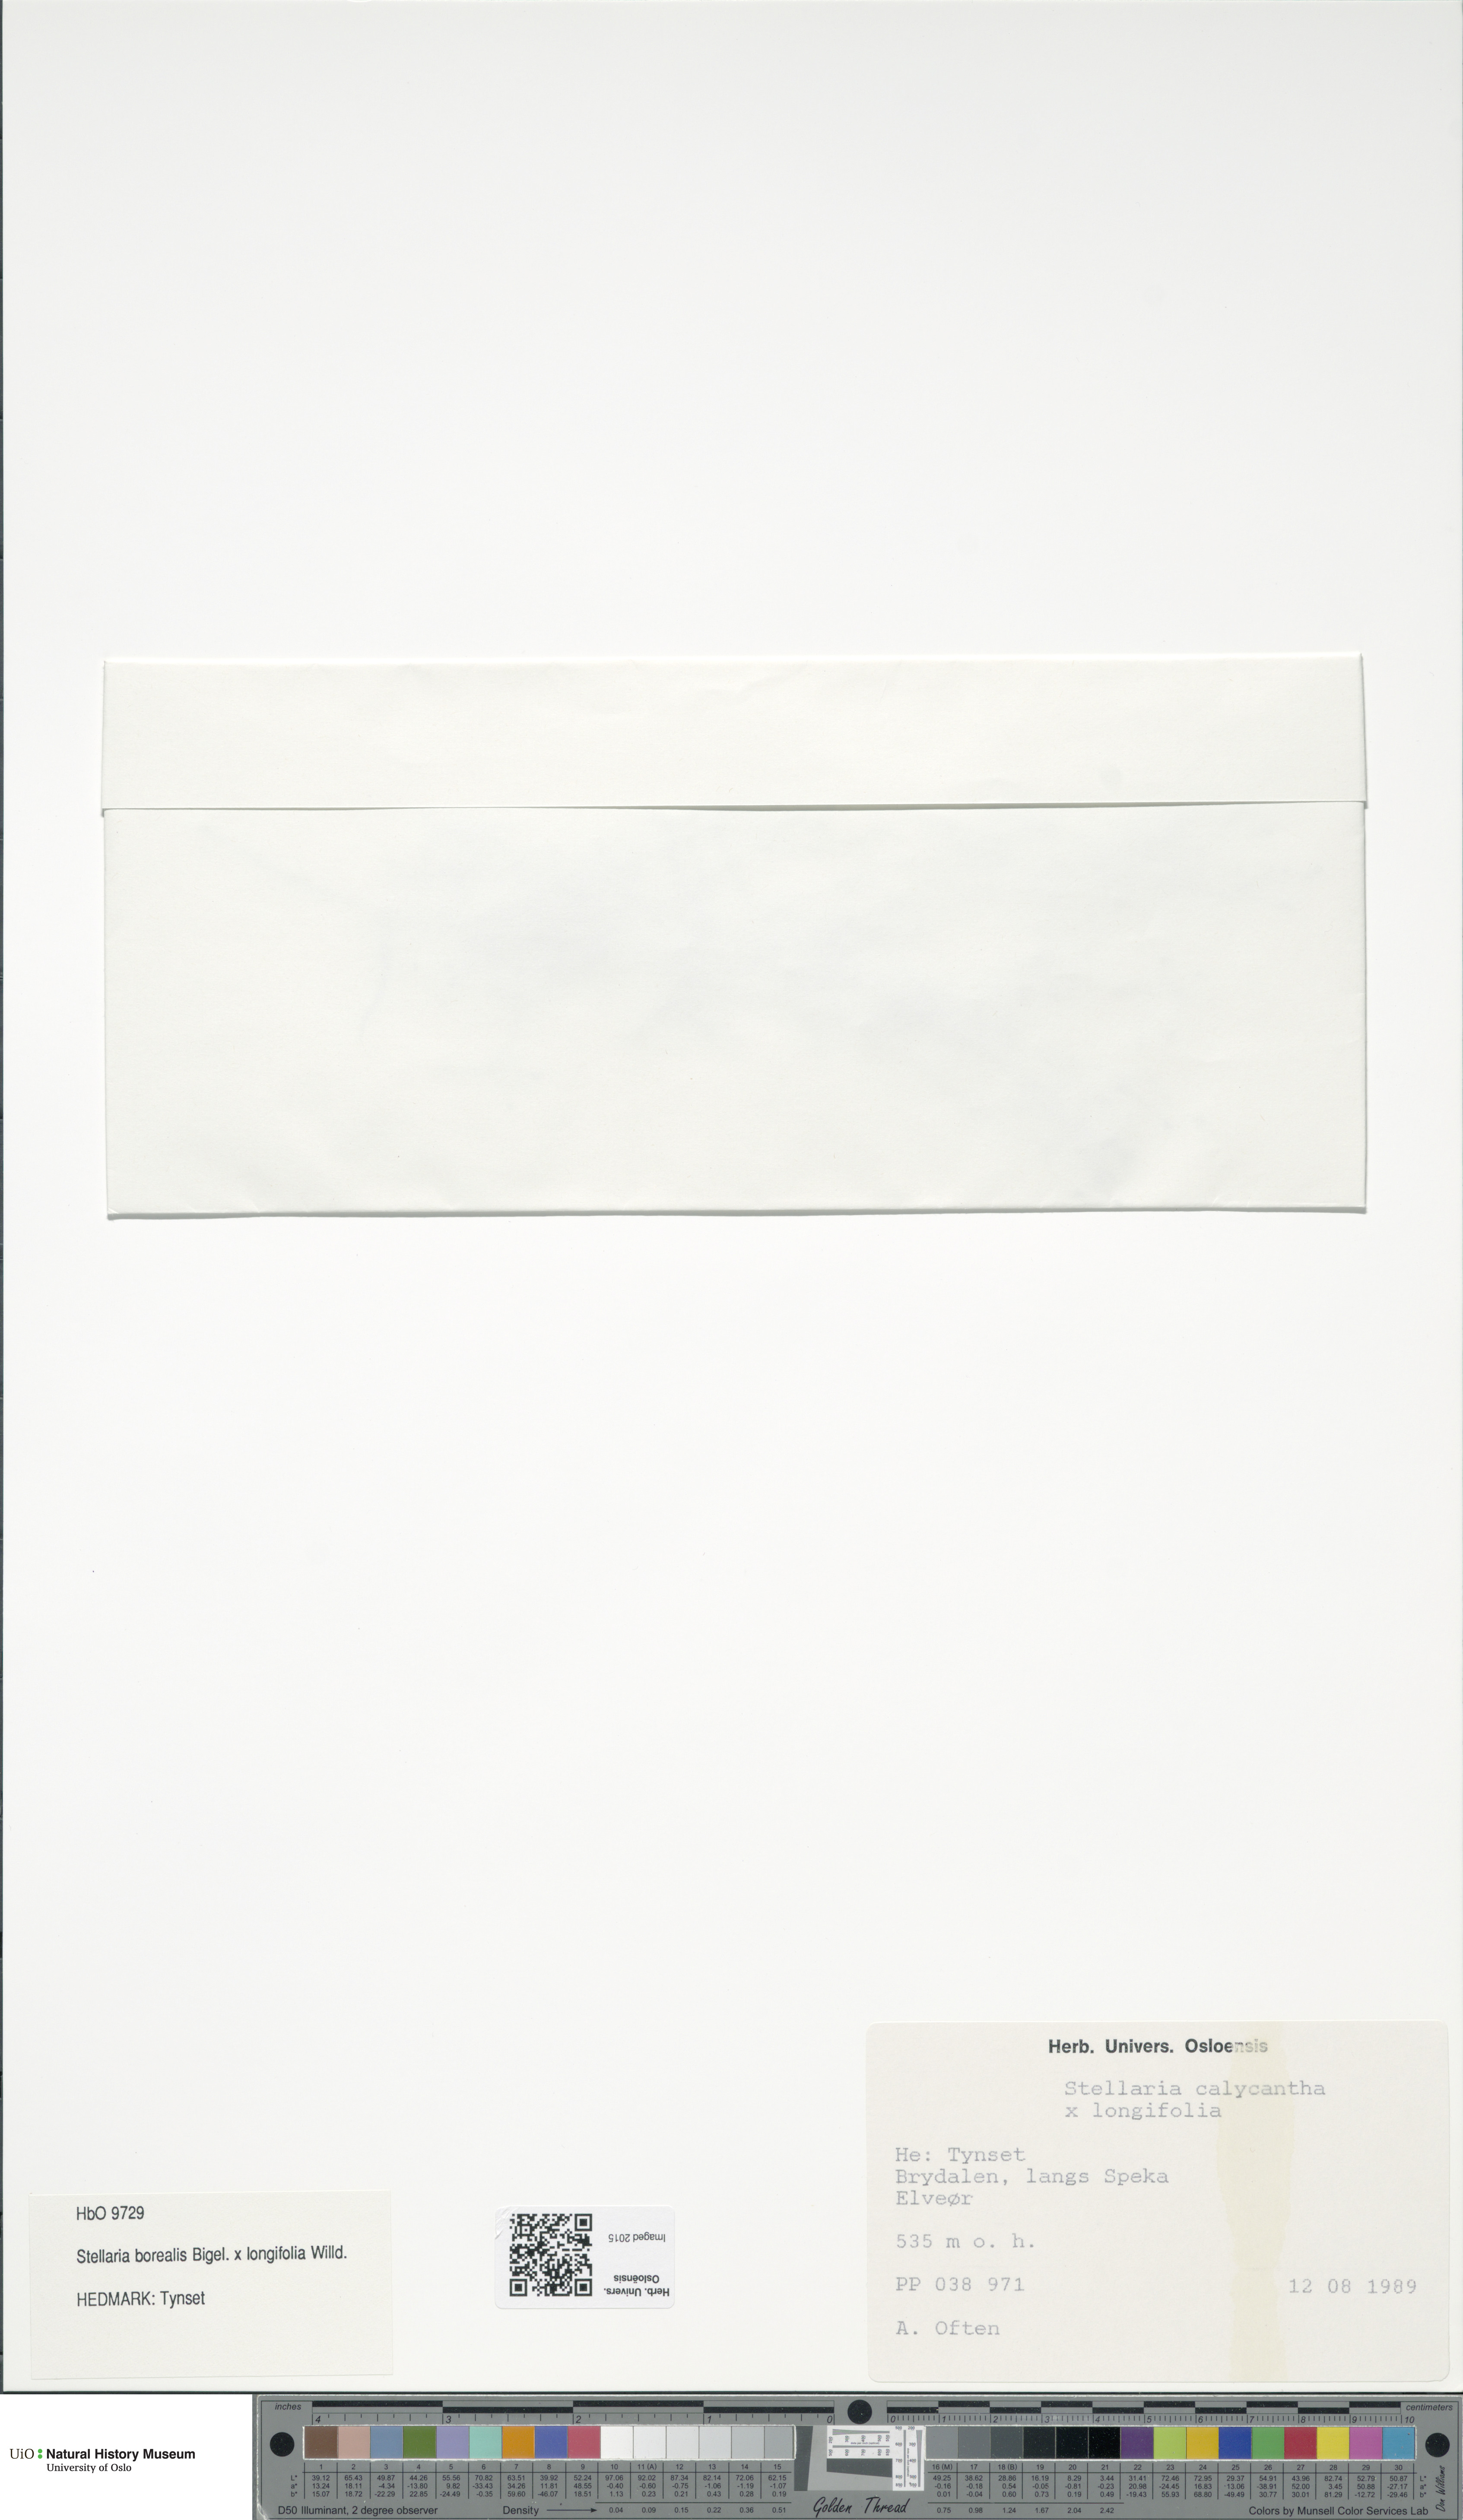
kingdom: Plantae
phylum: Tracheophyta
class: Magnoliopsida
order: Caryophyllales
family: Caryophyllaceae
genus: Stellaria
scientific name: Stellaria
